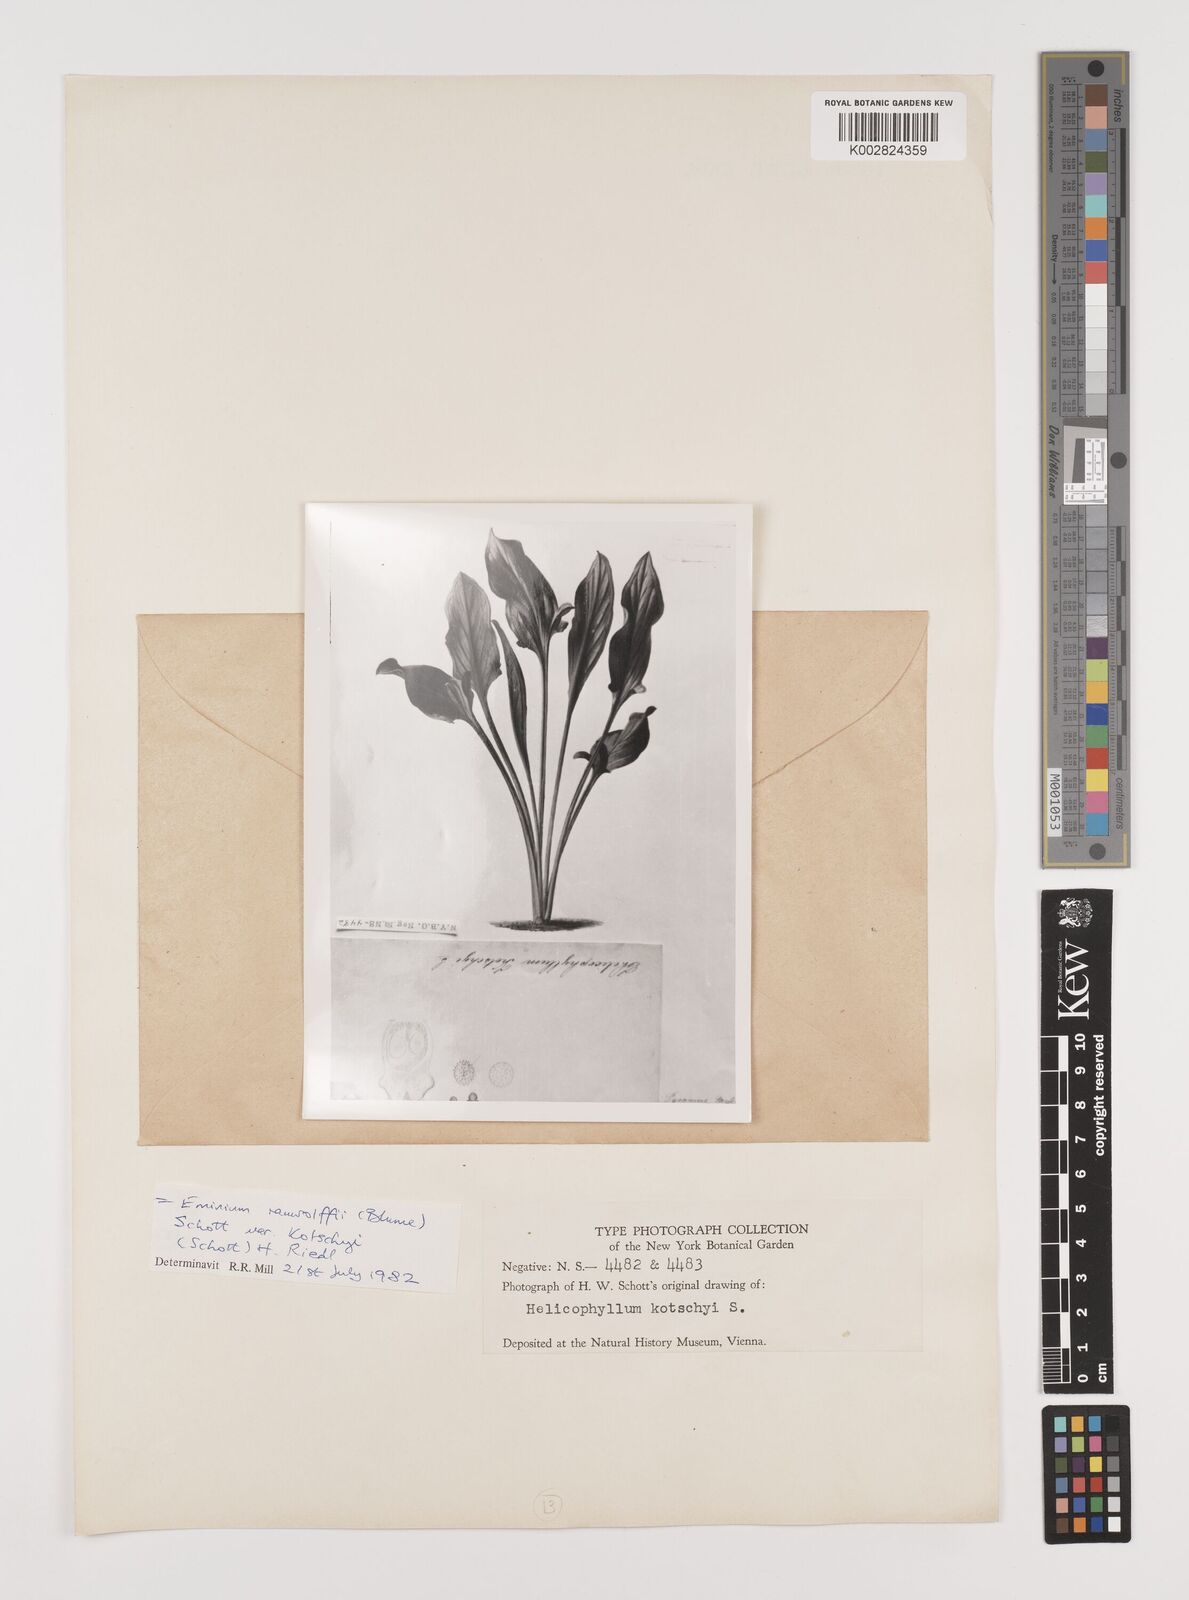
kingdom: Plantae
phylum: Tracheophyta
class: Liliopsida
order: Alismatales
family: Araceae
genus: Eminium
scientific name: Eminium rauwolffii
